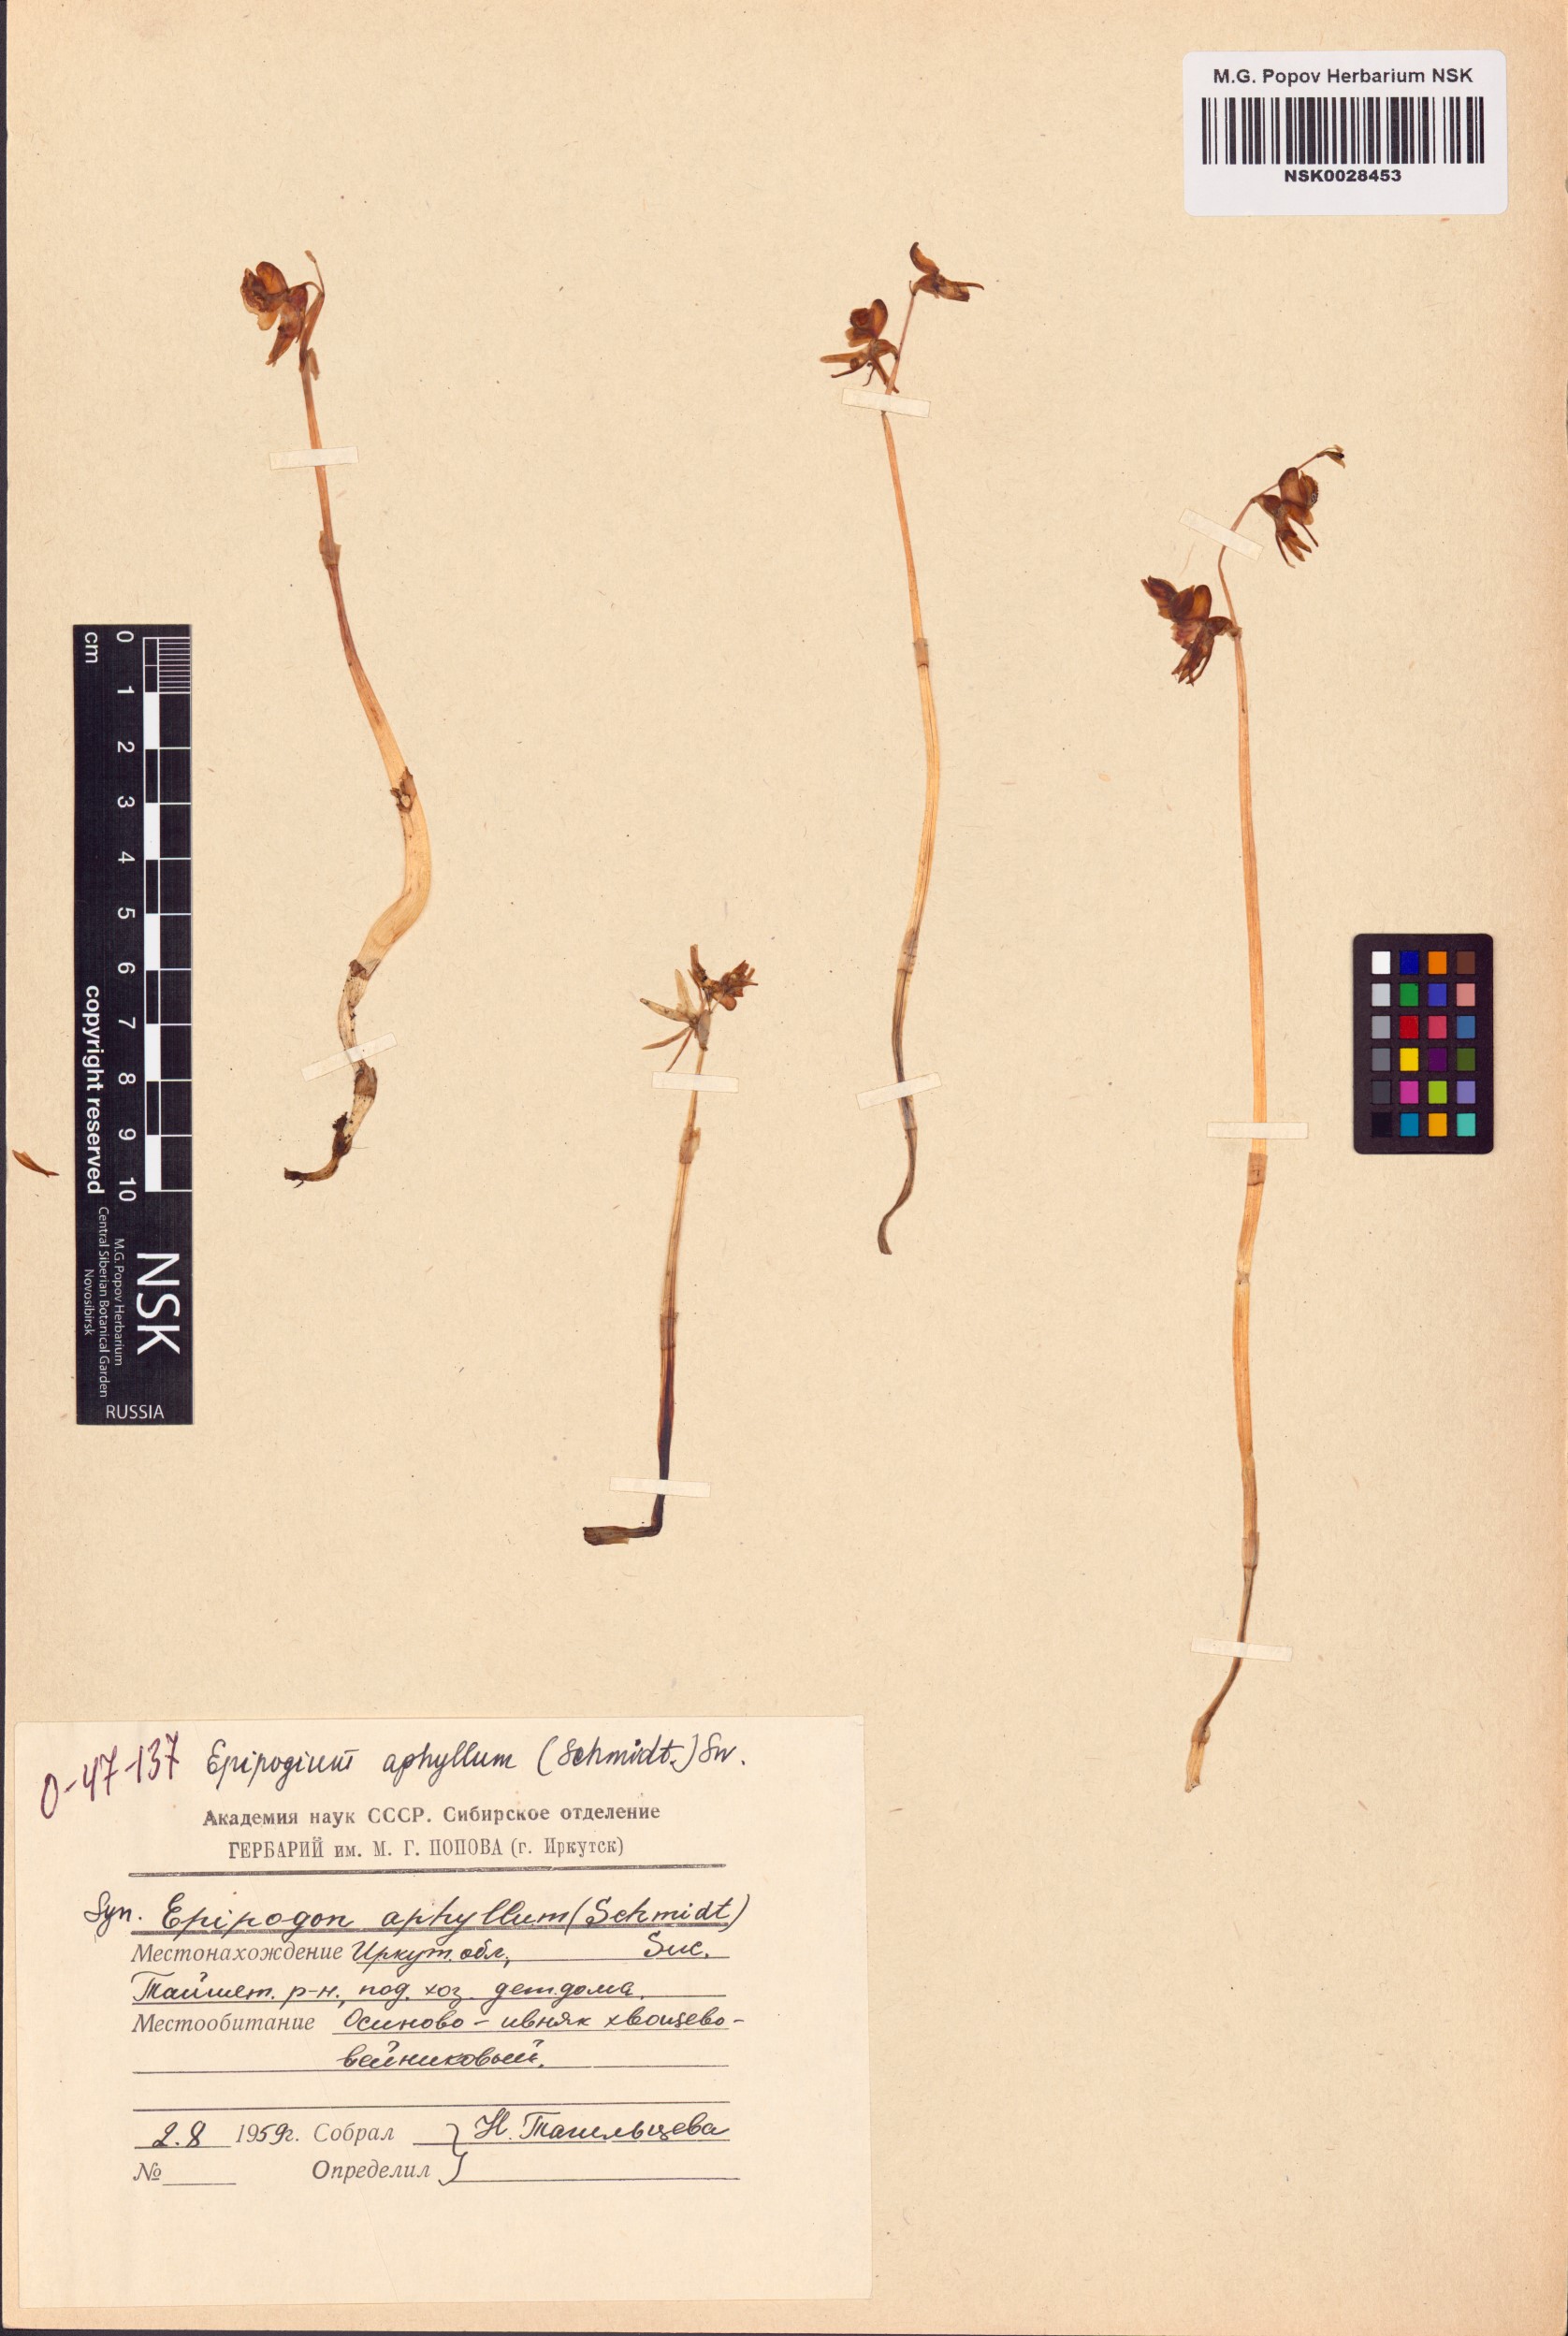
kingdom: Plantae
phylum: Tracheophyta
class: Liliopsida
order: Asparagales
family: Orchidaceae
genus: Epipogium
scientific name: Epipogium aphyllum
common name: Ghost orchid
